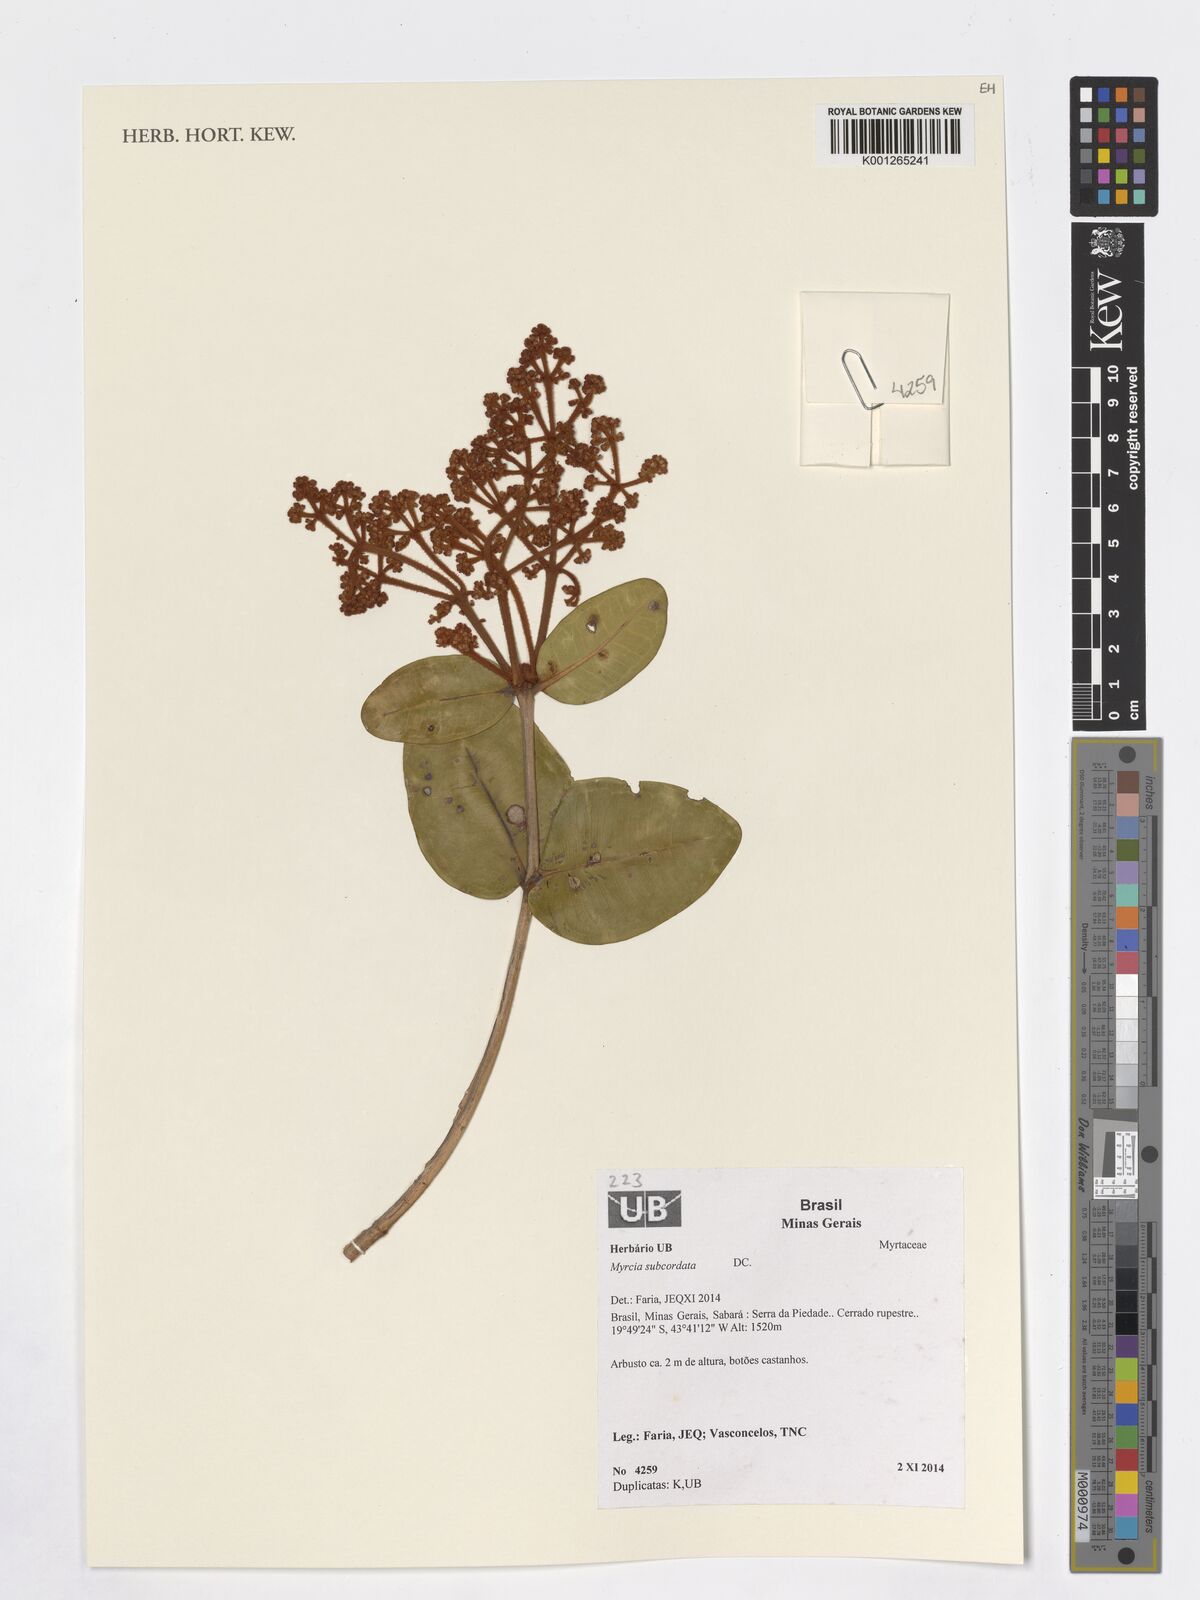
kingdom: Plantae
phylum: Tracheophyta
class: Magnoliopsida
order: Myrtales
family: Myrtaceae
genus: Myrcia
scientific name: Myrcia subcordata
